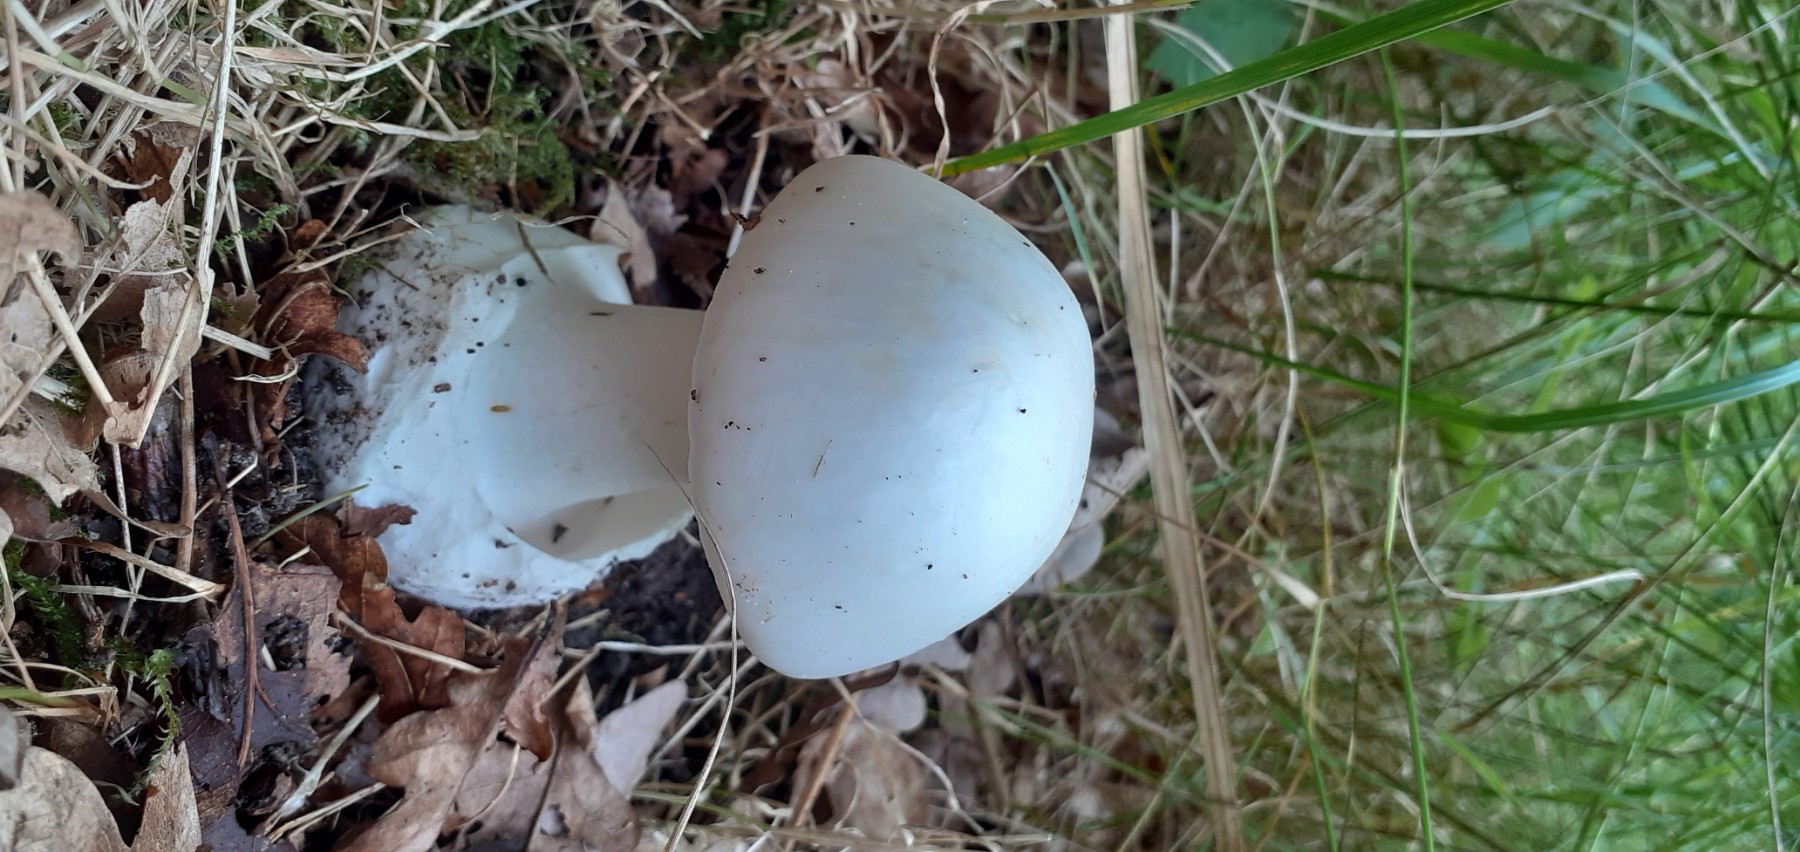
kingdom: Fungi
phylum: Basidiomycota
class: Agaricomycetes
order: Agaricales
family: Amanitaceae
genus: Amanita
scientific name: Amanita phalloides
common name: Death cap
